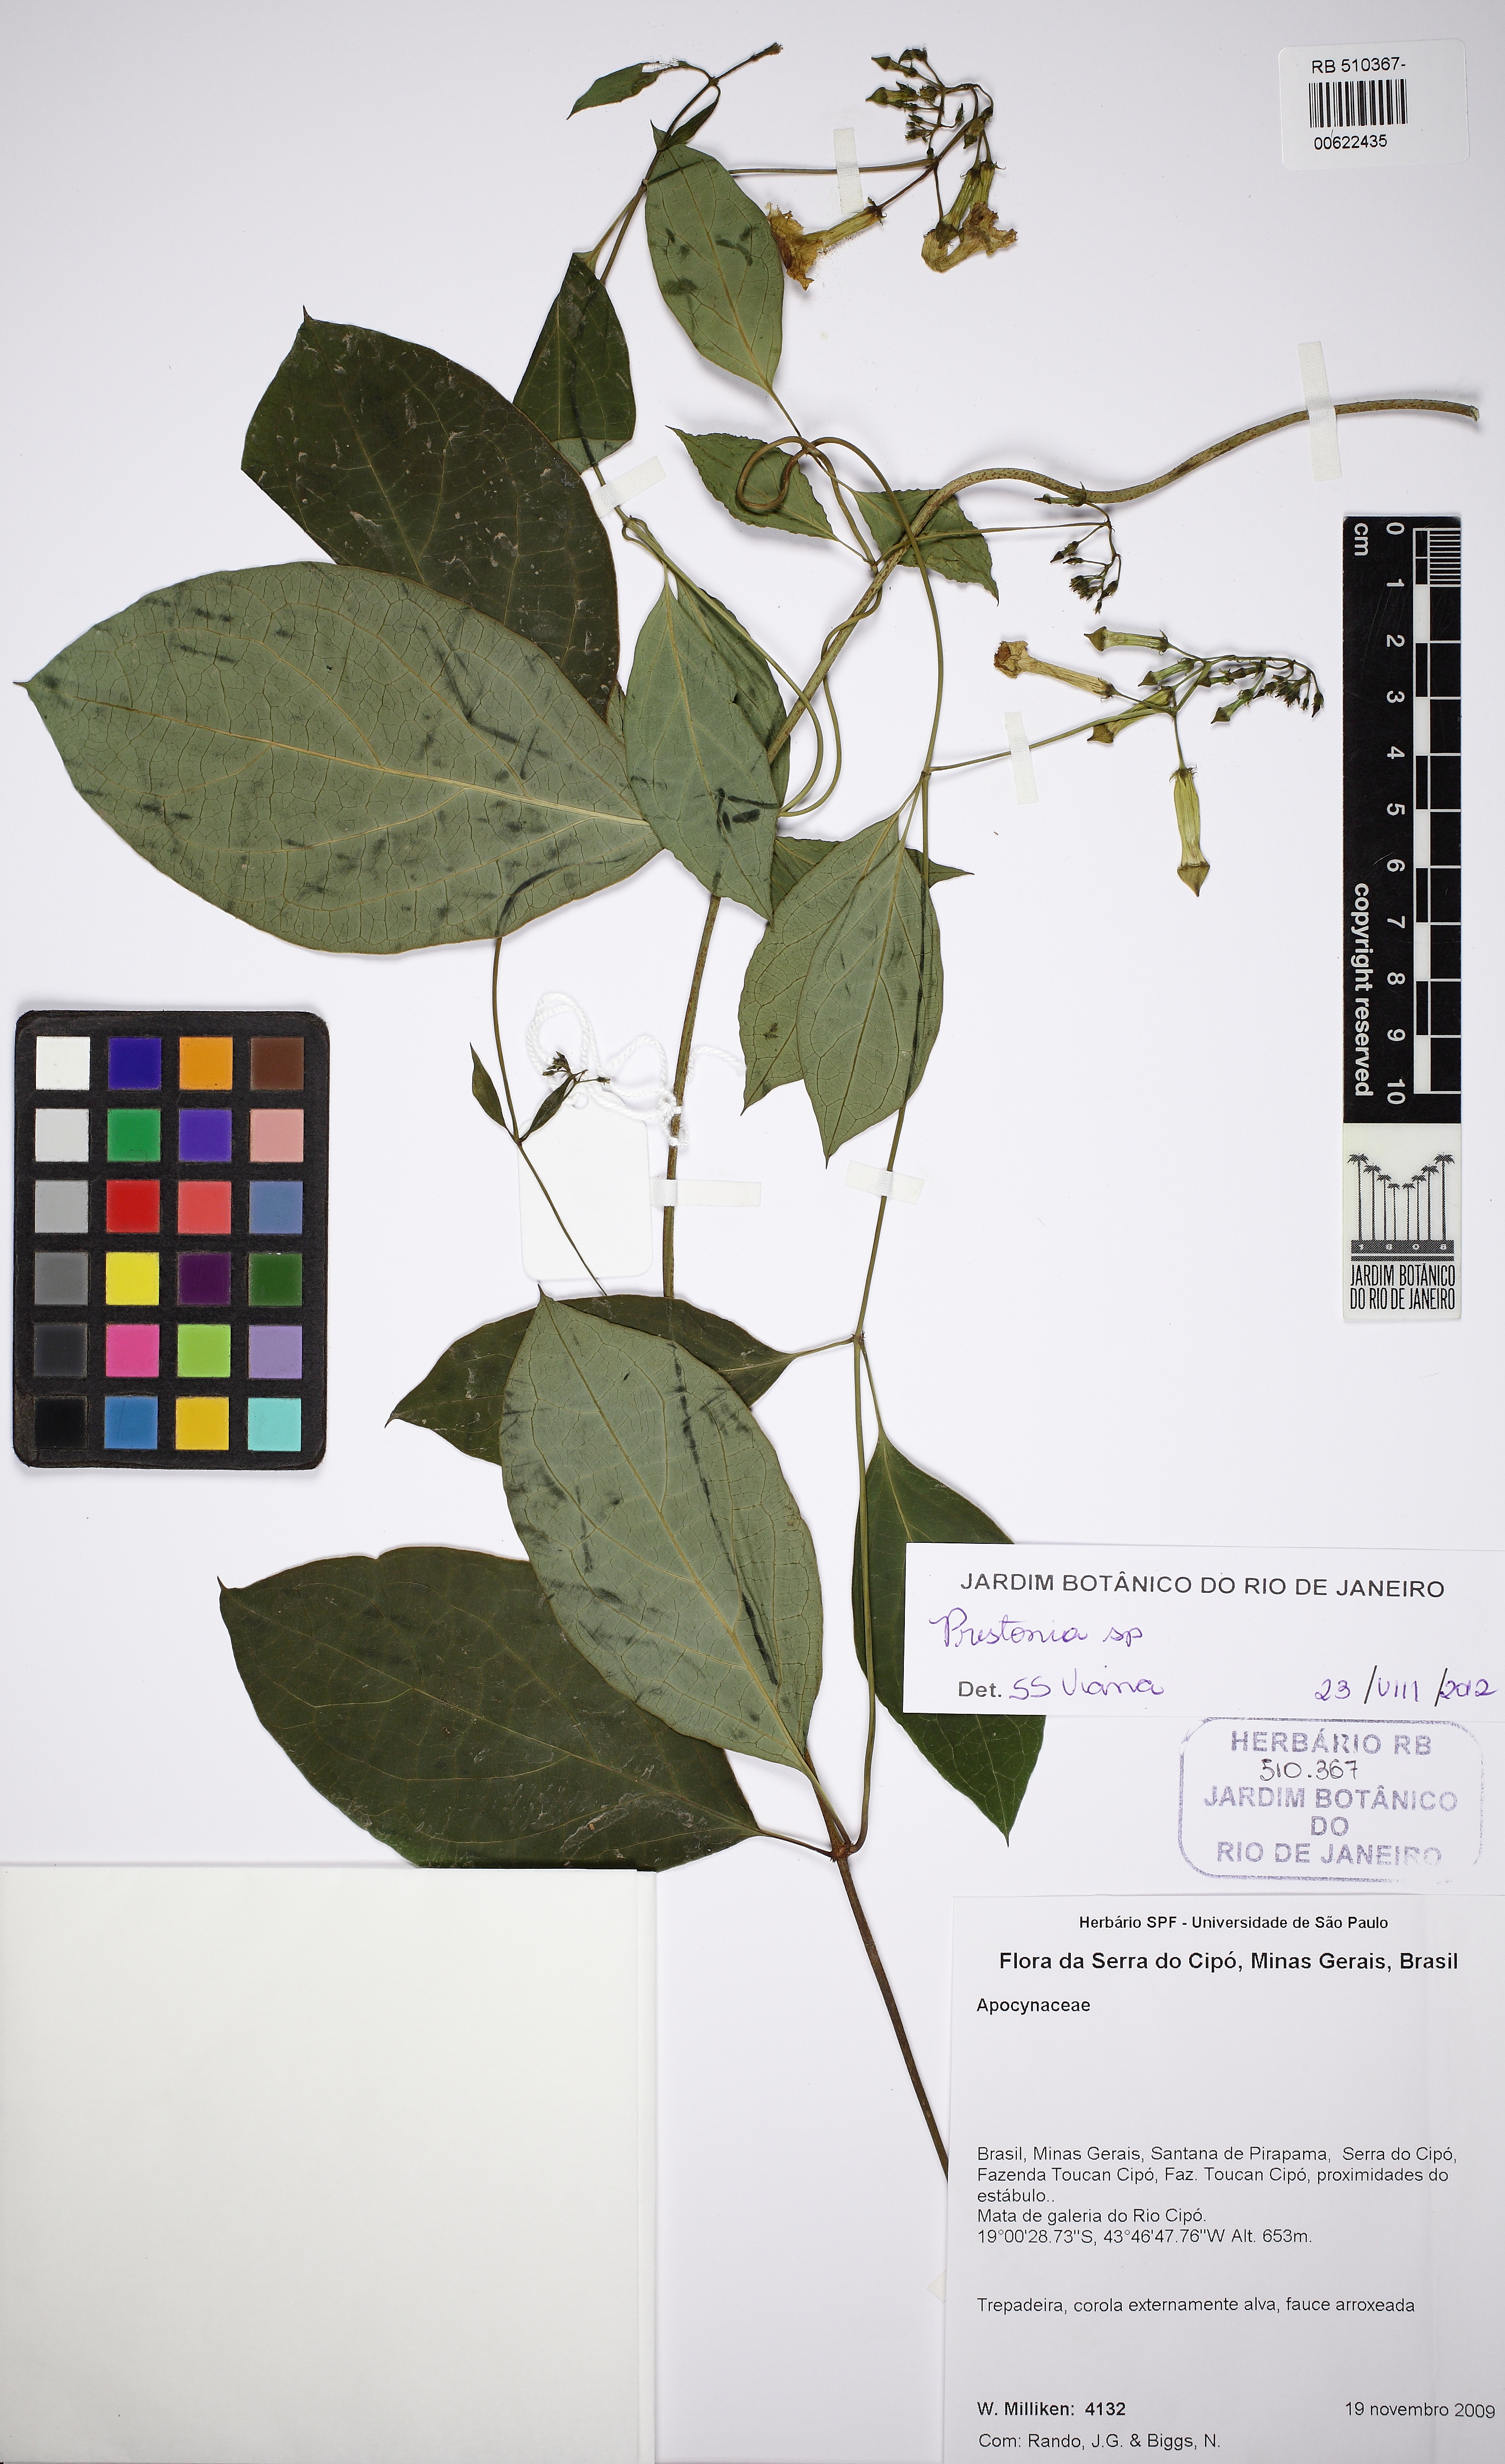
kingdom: Plantae
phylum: Tracheophyta
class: Magnoliopsida
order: Gentianales
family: Apocynaceae
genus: Prestonia
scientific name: Prestonia
